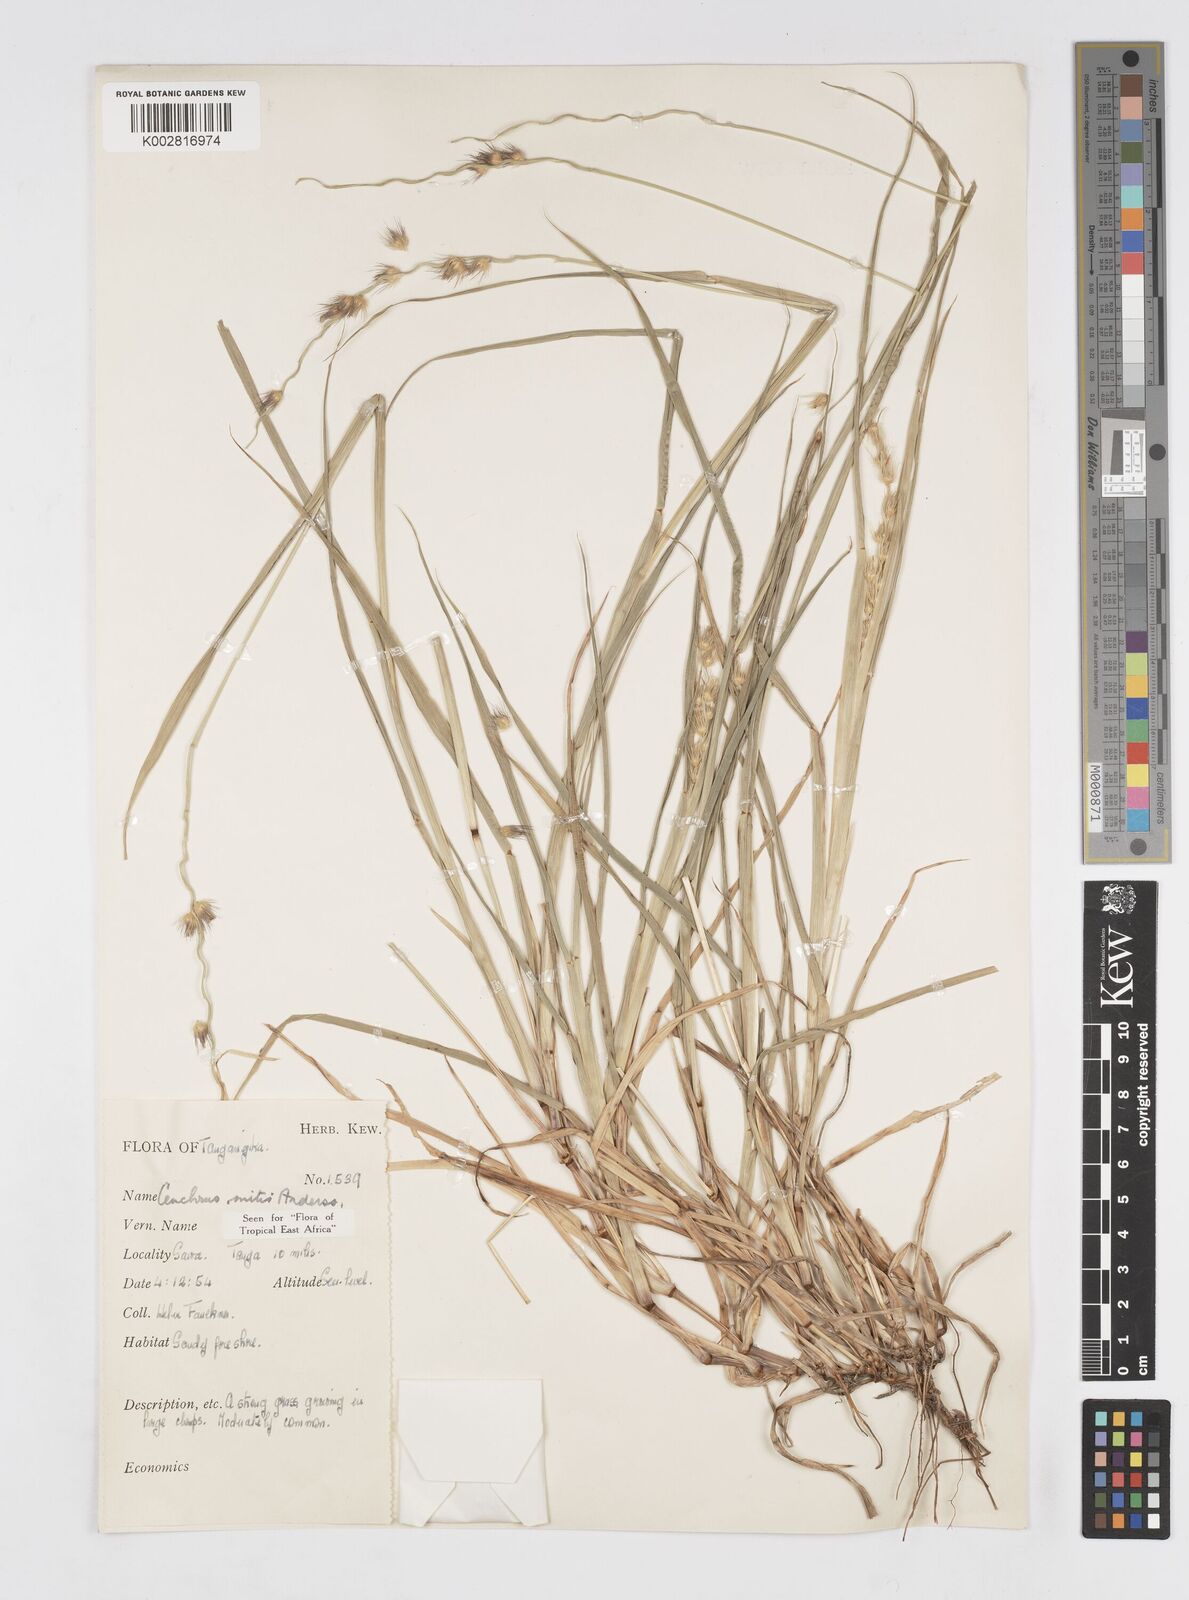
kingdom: Plantae
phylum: Tracheophyta
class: Liliopsida
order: Poales
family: Poaceae
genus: Cenchrus
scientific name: Cenchrus mitis
